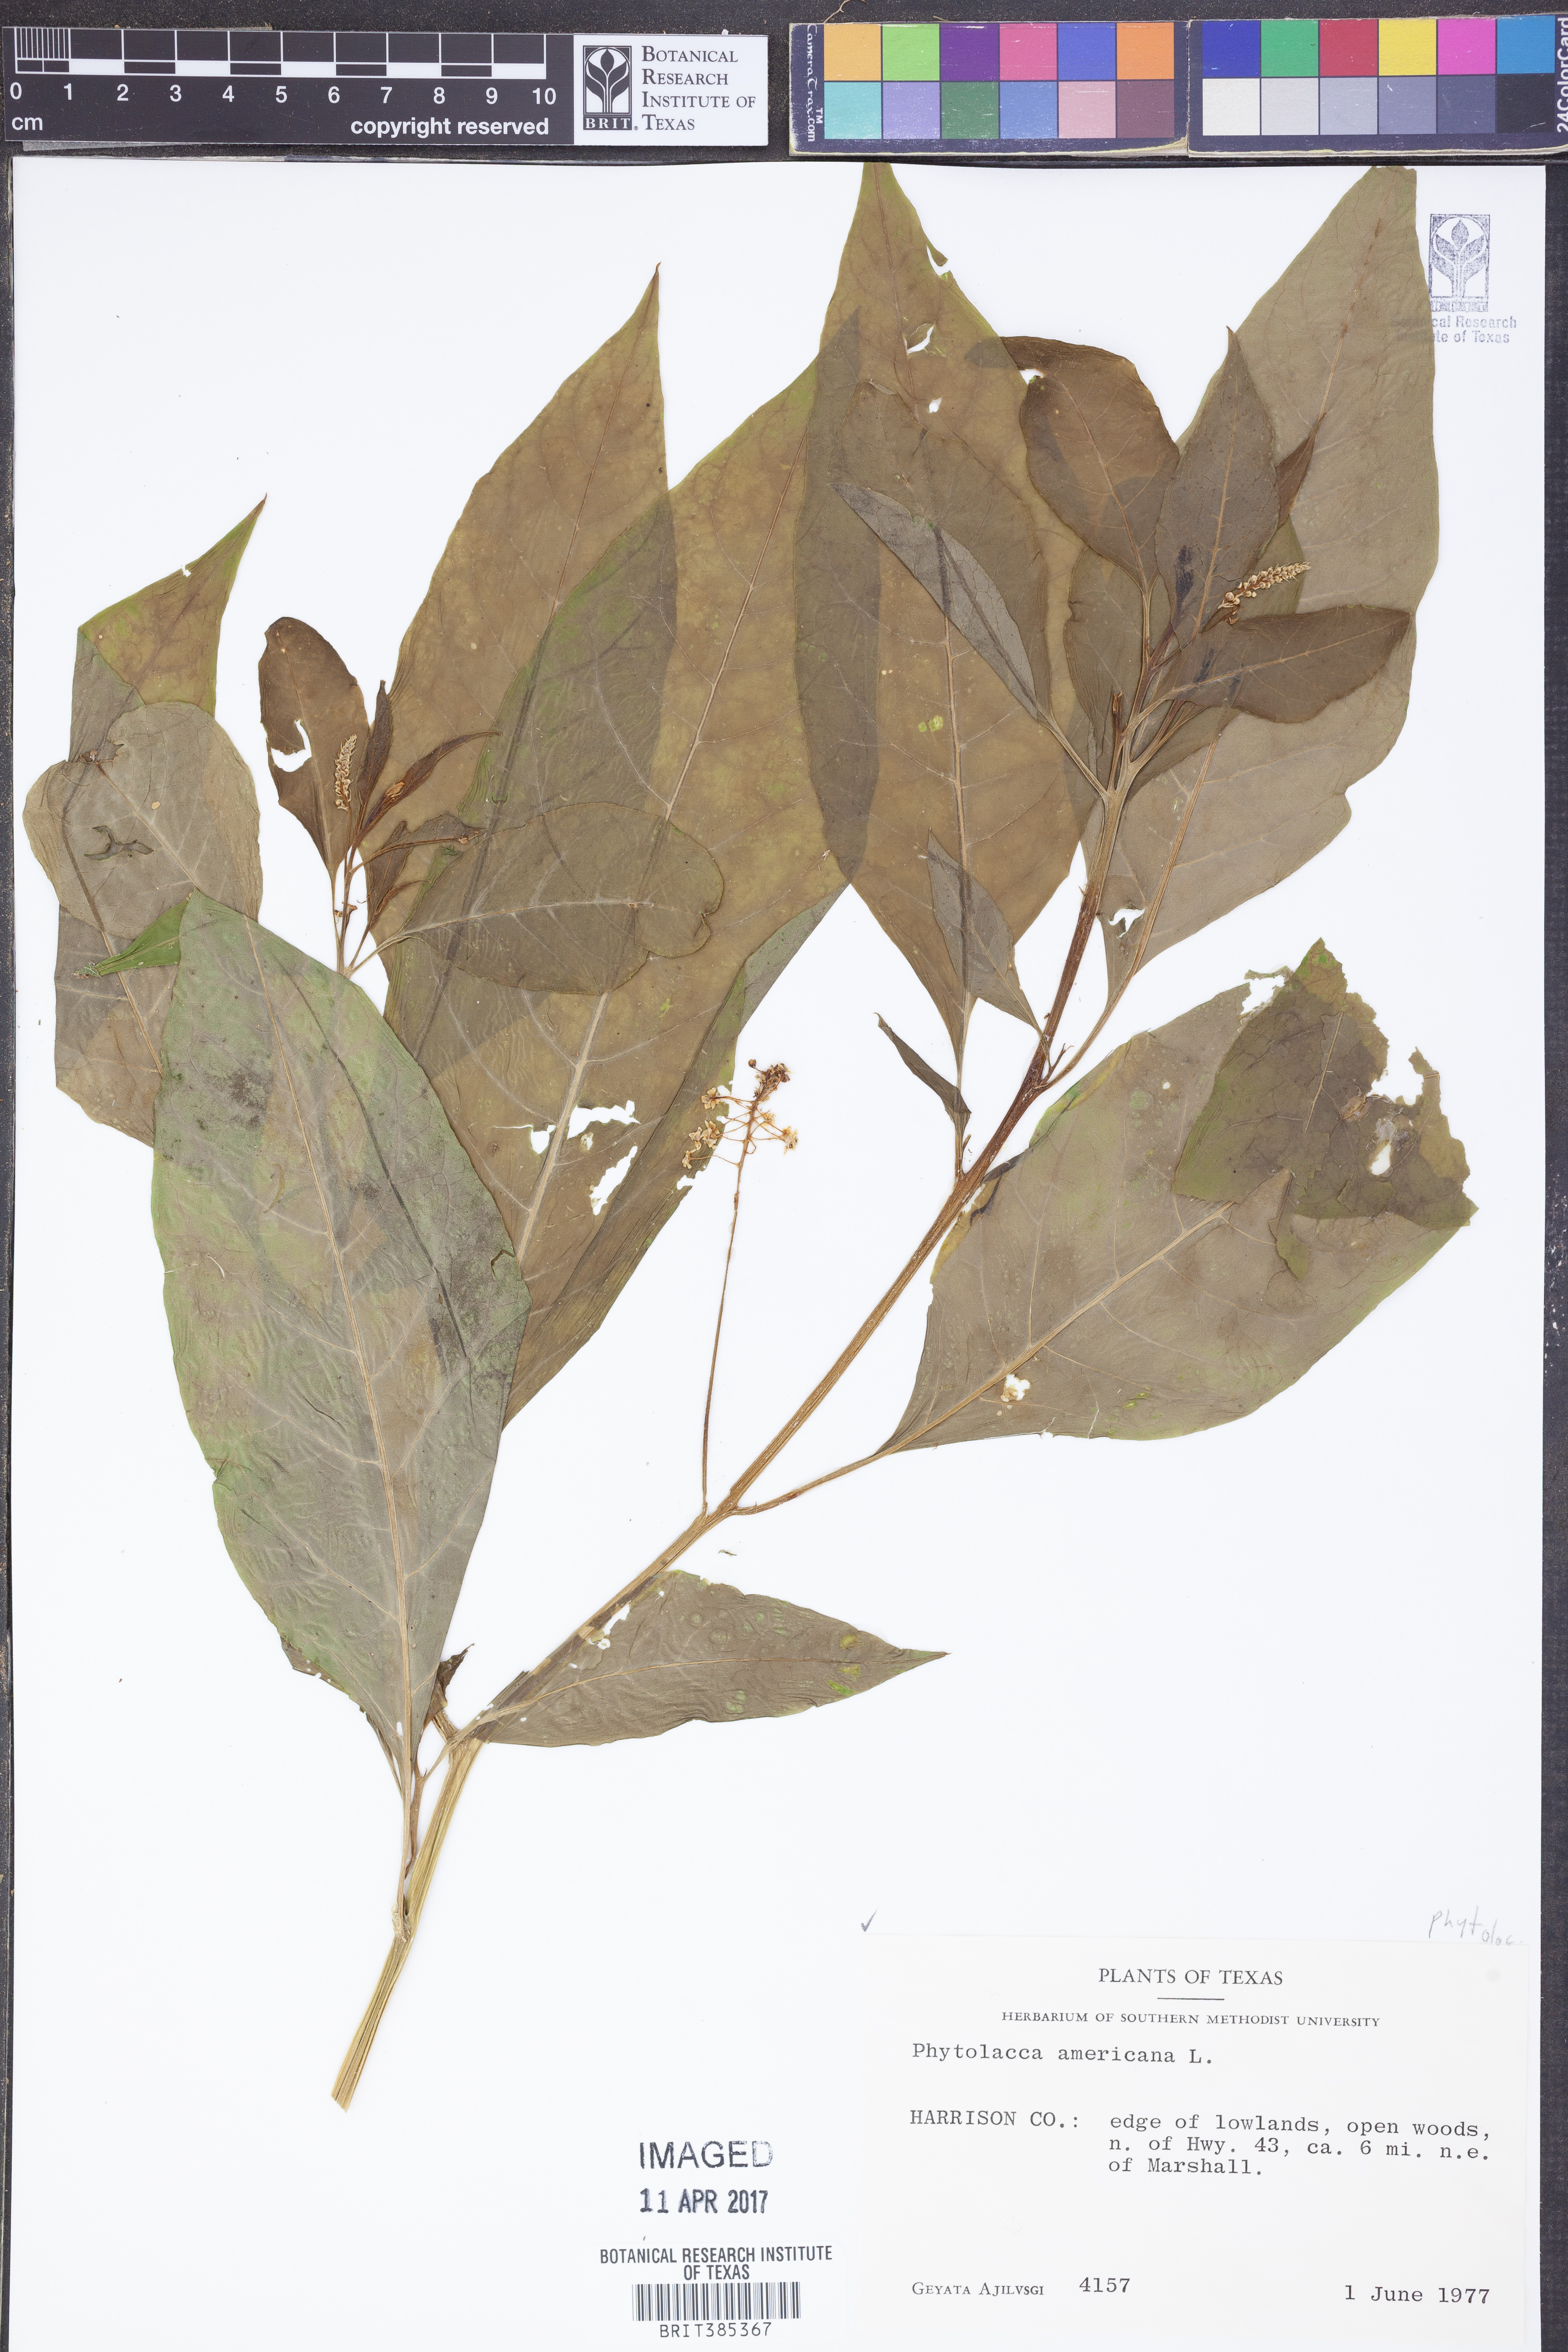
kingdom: Plantae
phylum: Tracheophyta
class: Magnoliopsida
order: Caryophyllales
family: Phytolaccaceae
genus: Phytolacca
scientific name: Phytolacca americana
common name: American pokeweed
